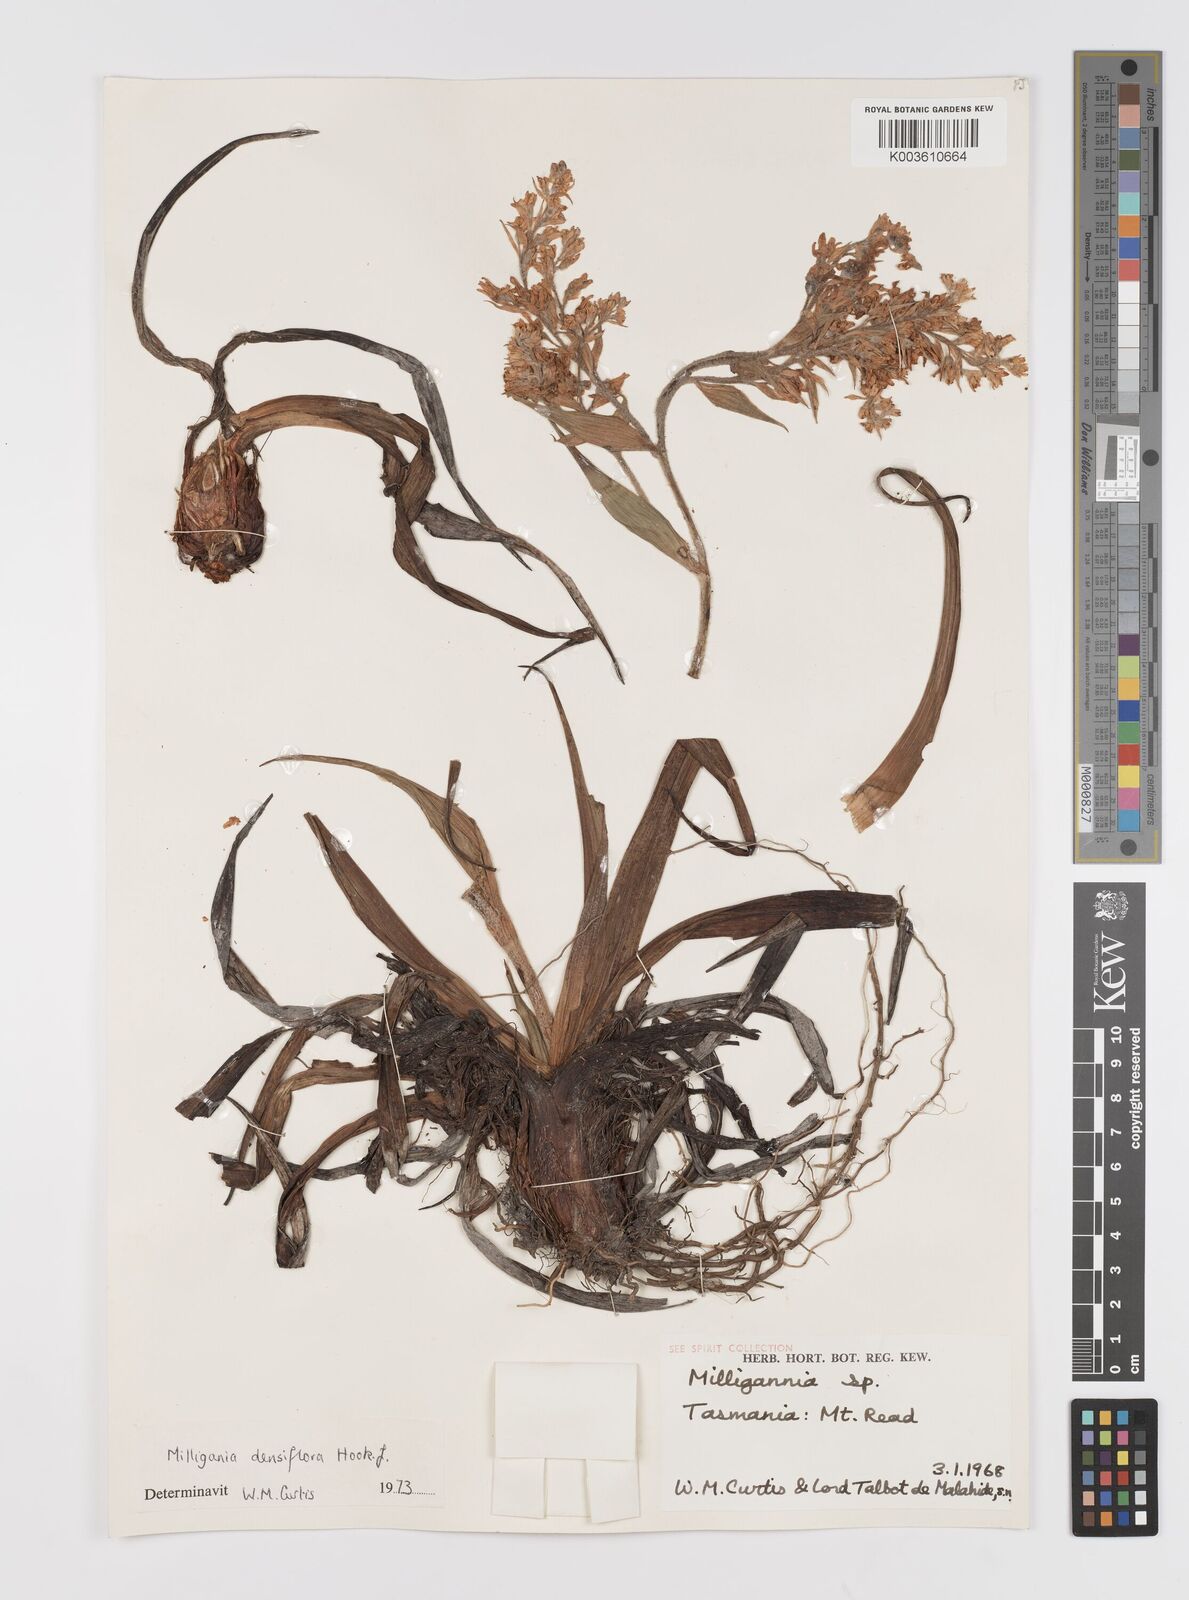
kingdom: Plantae
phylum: Tracheophyta
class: Liliopsida
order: Asparagales
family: Asteliaceae
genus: Milligania
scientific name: Milligania densiflora
